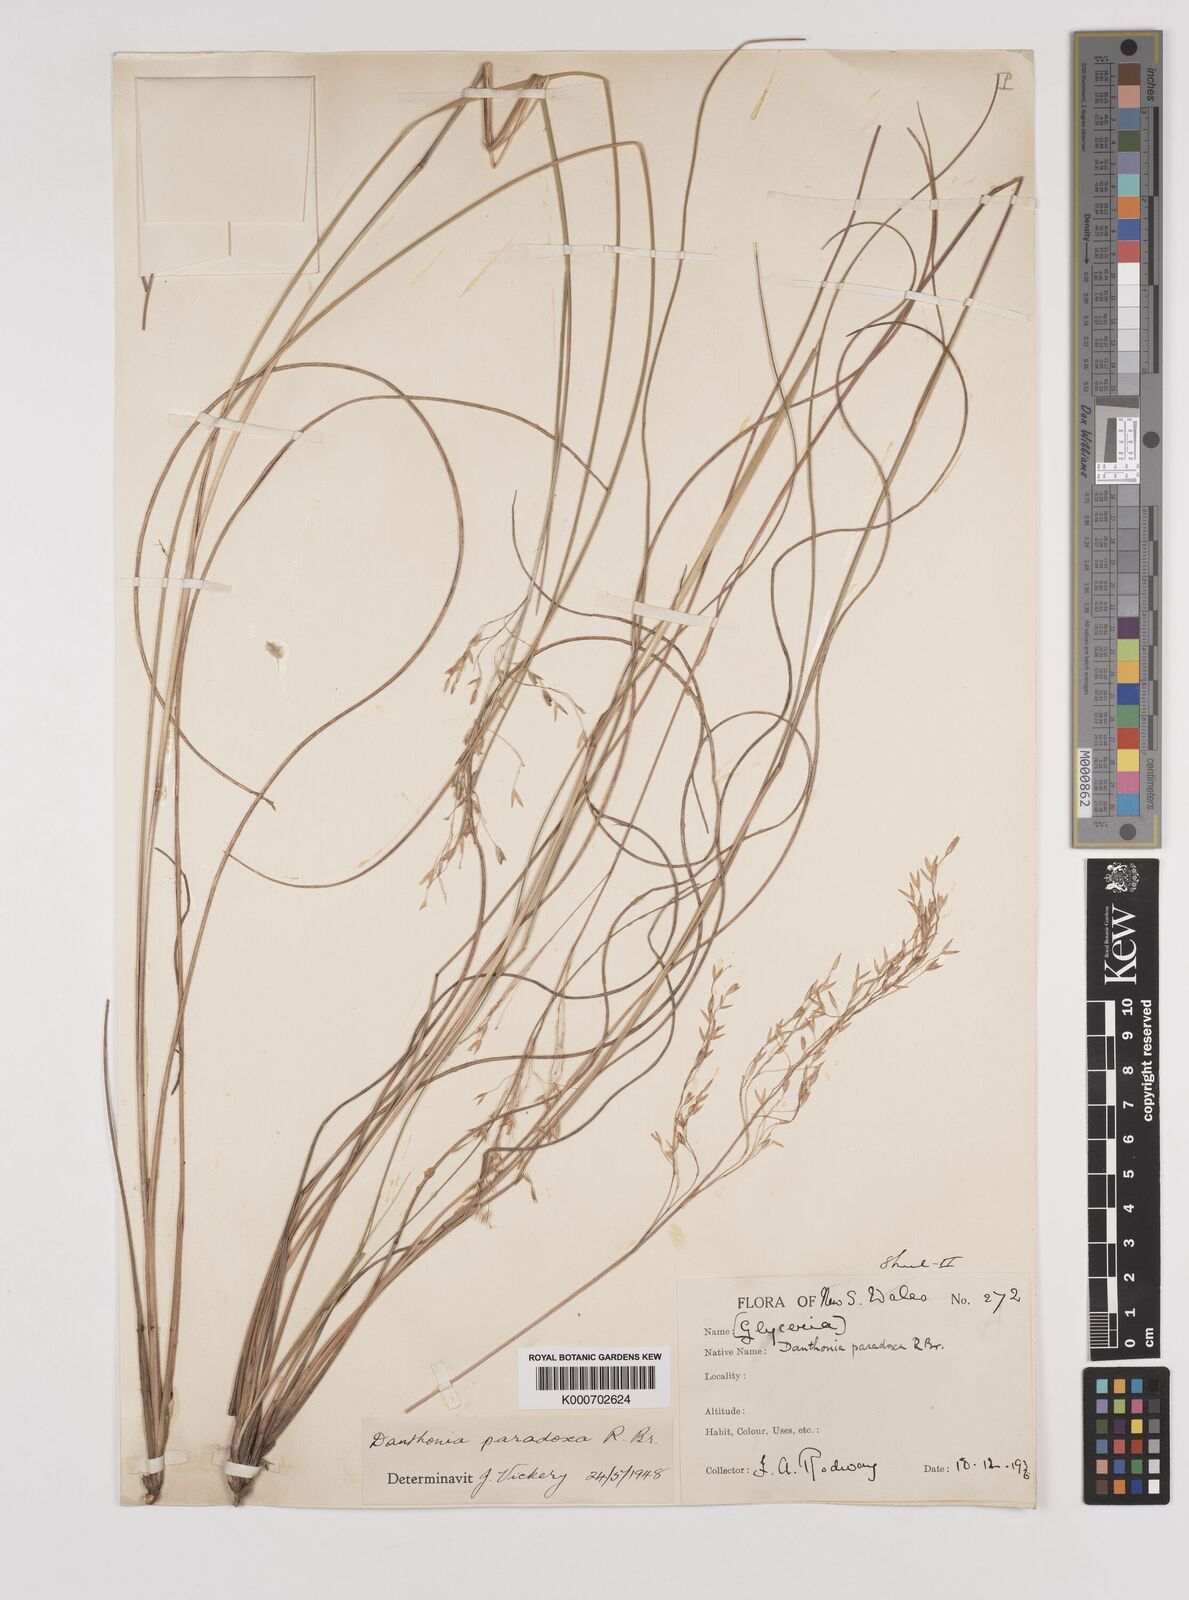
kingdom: Plantae
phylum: Tracheophyta
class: Liliopsida
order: Poales
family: Poaceae
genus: Plinthanthesis
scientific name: Plinthanthesis paradoxa
